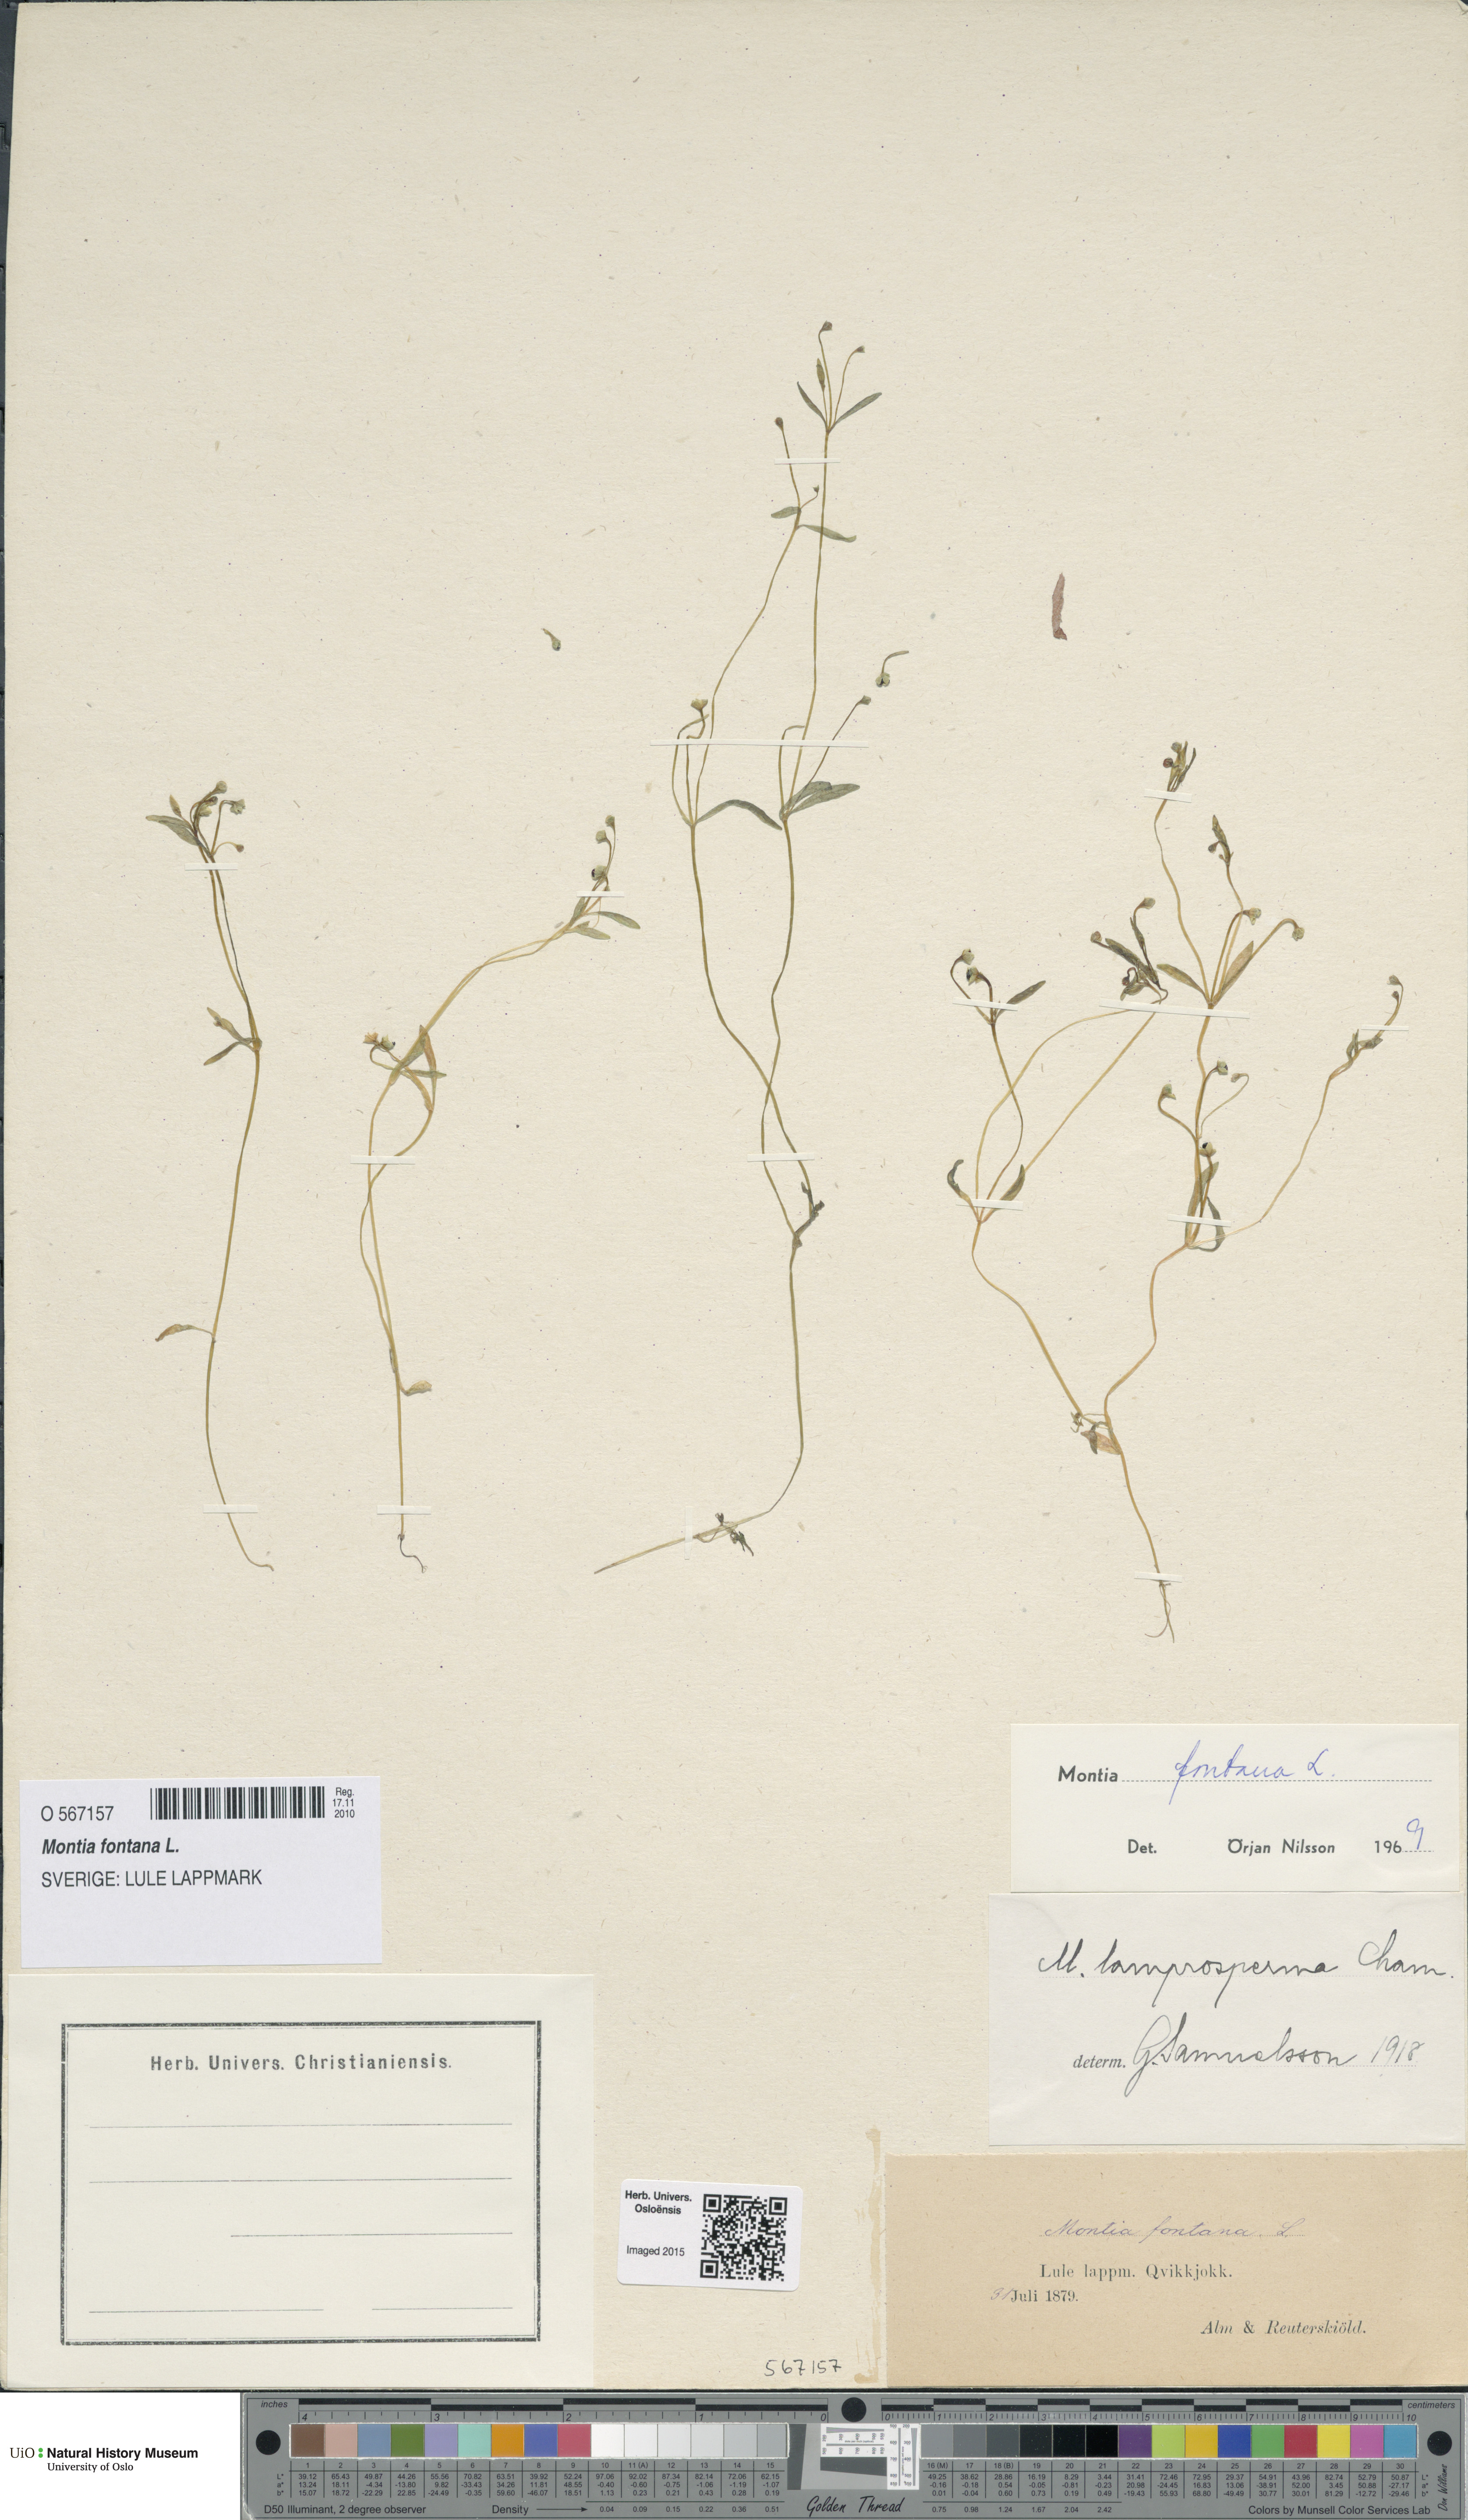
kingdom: Plantae
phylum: Tracheophyta
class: Magnoliopsida
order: Caryophyllales
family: Montiaceae
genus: Montia
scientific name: Montia fontana
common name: Blinks
